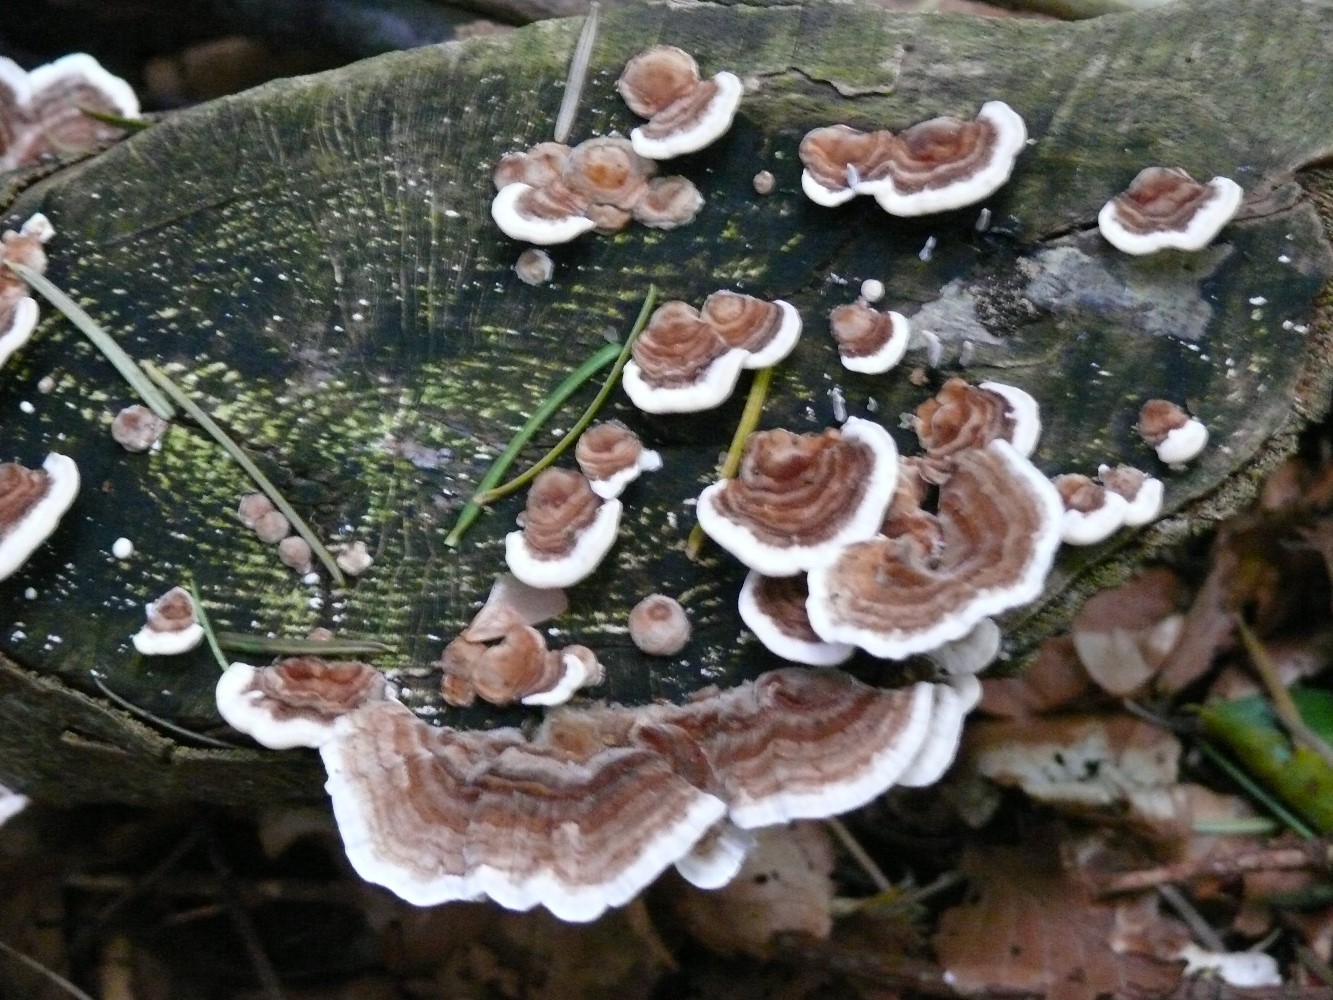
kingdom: Fungi
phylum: Basidiomycota
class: Agaricomycetes
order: Polyporales
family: Polyporaceae
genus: Trametes
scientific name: Trametes versicolor
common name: broget læderporesvamp
